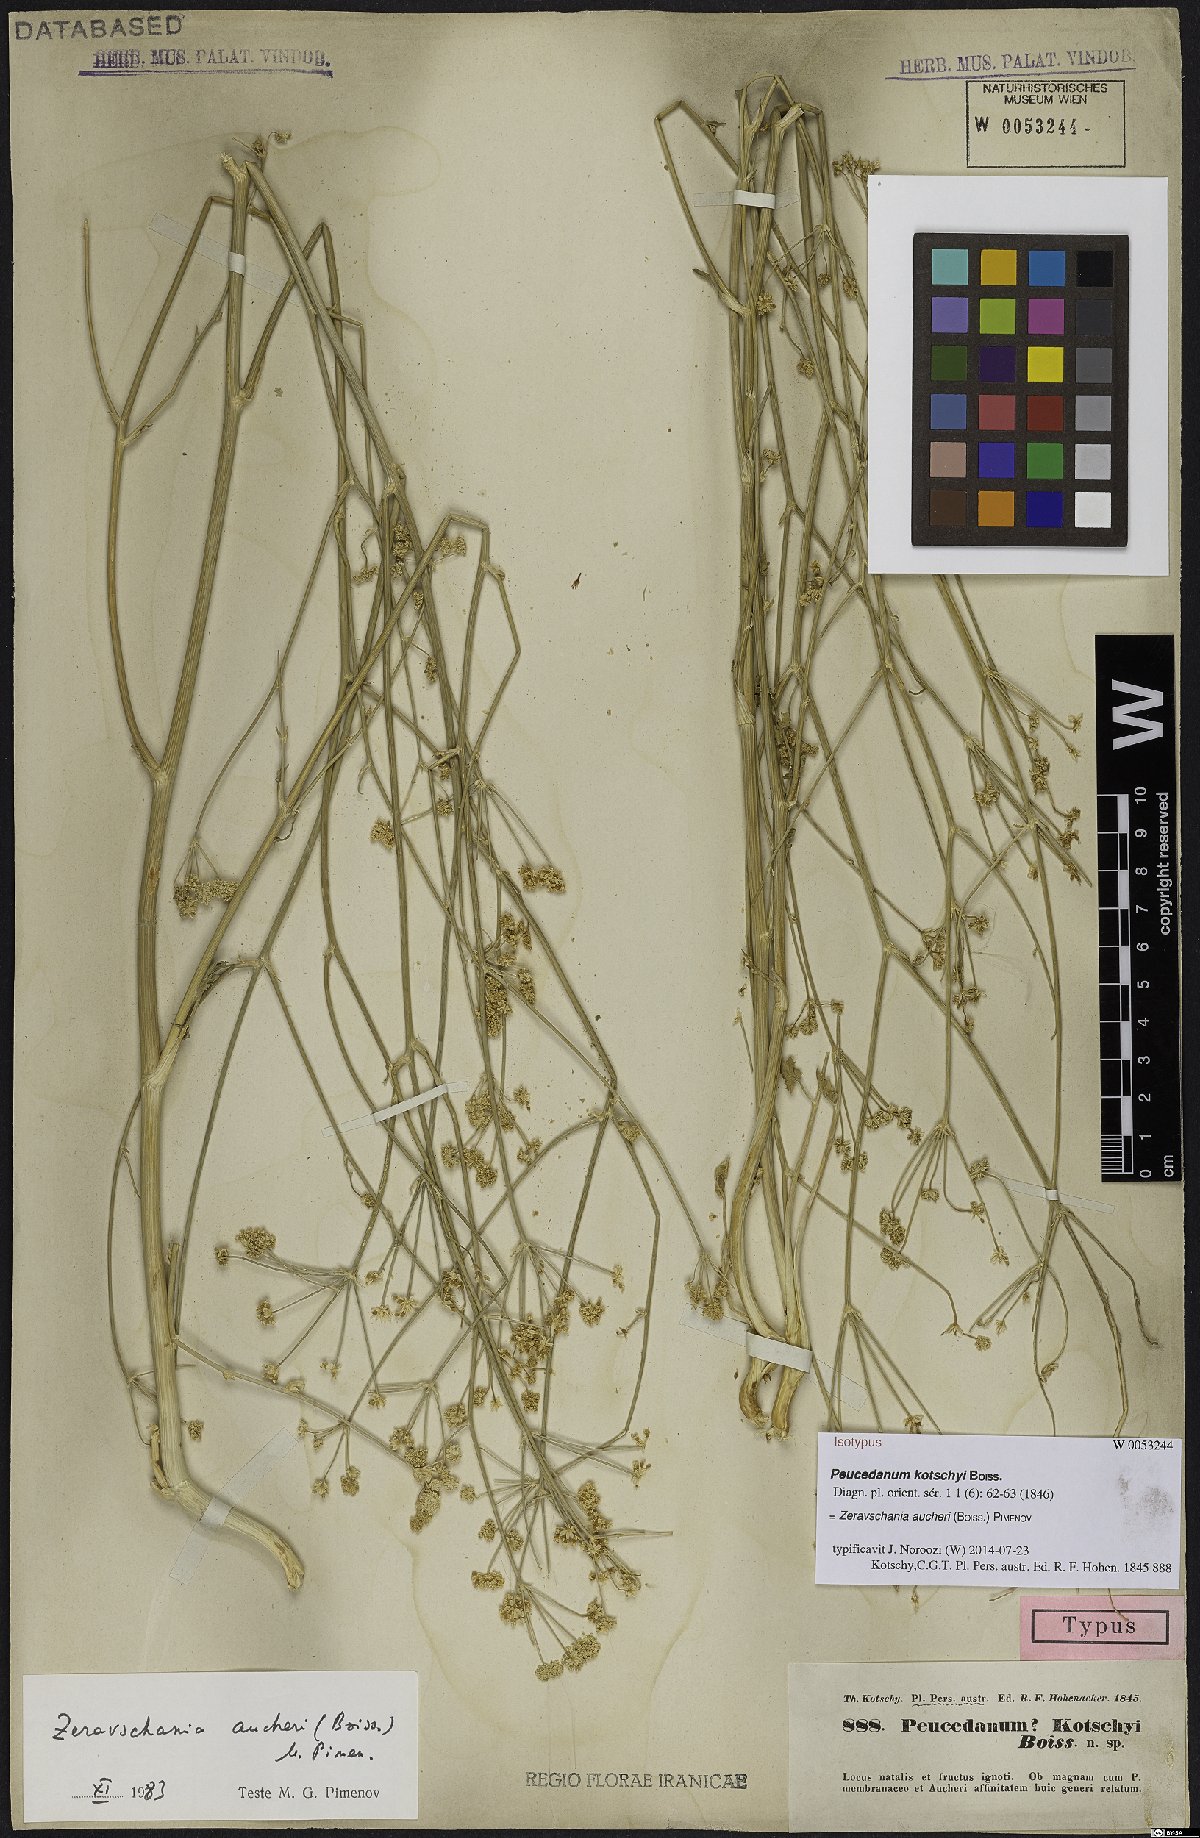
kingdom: Plantae
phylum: Tracheophyta
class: Magnoliopsida
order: Apiales
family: Apiaceae
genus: Zeravschania
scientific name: Zeravschania aucheri
